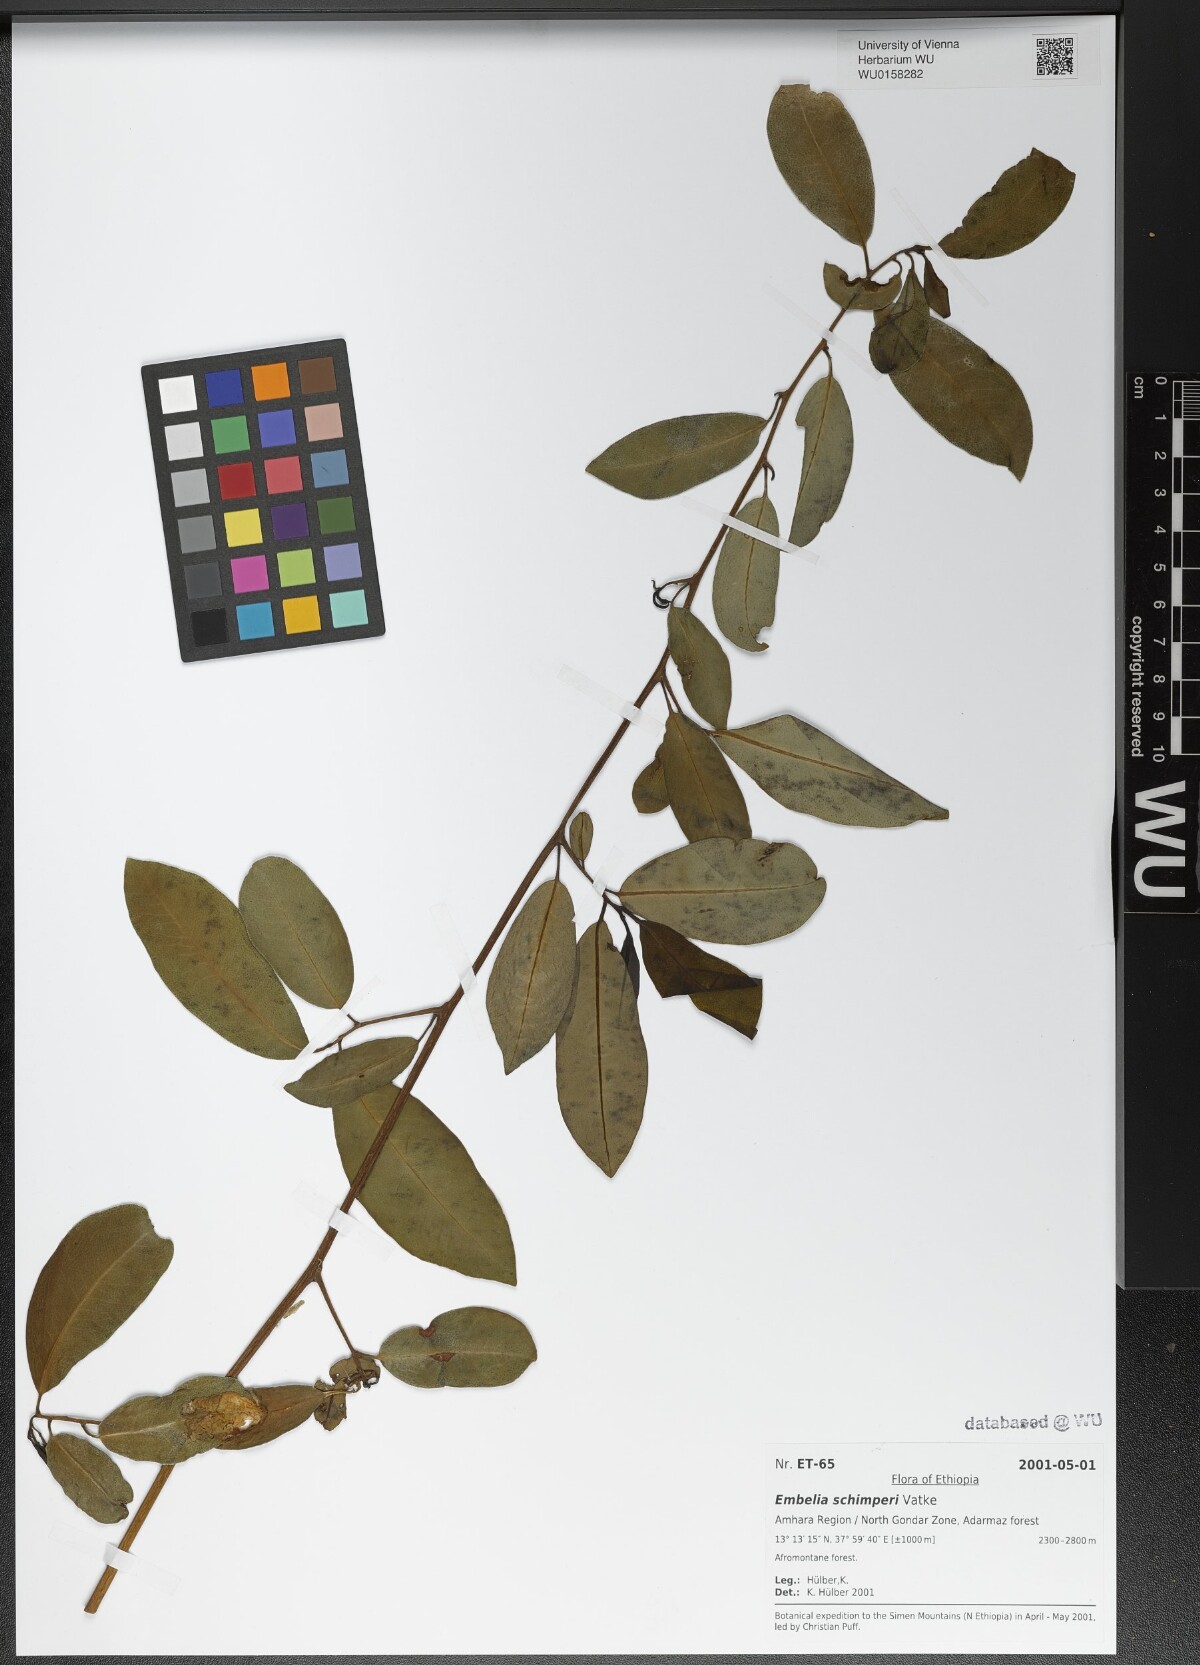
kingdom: Plantae
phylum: Tracheophyta
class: Magnoliopsida
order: Ericales
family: Primulaceae
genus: Embelia
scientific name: Embelia schimperi
